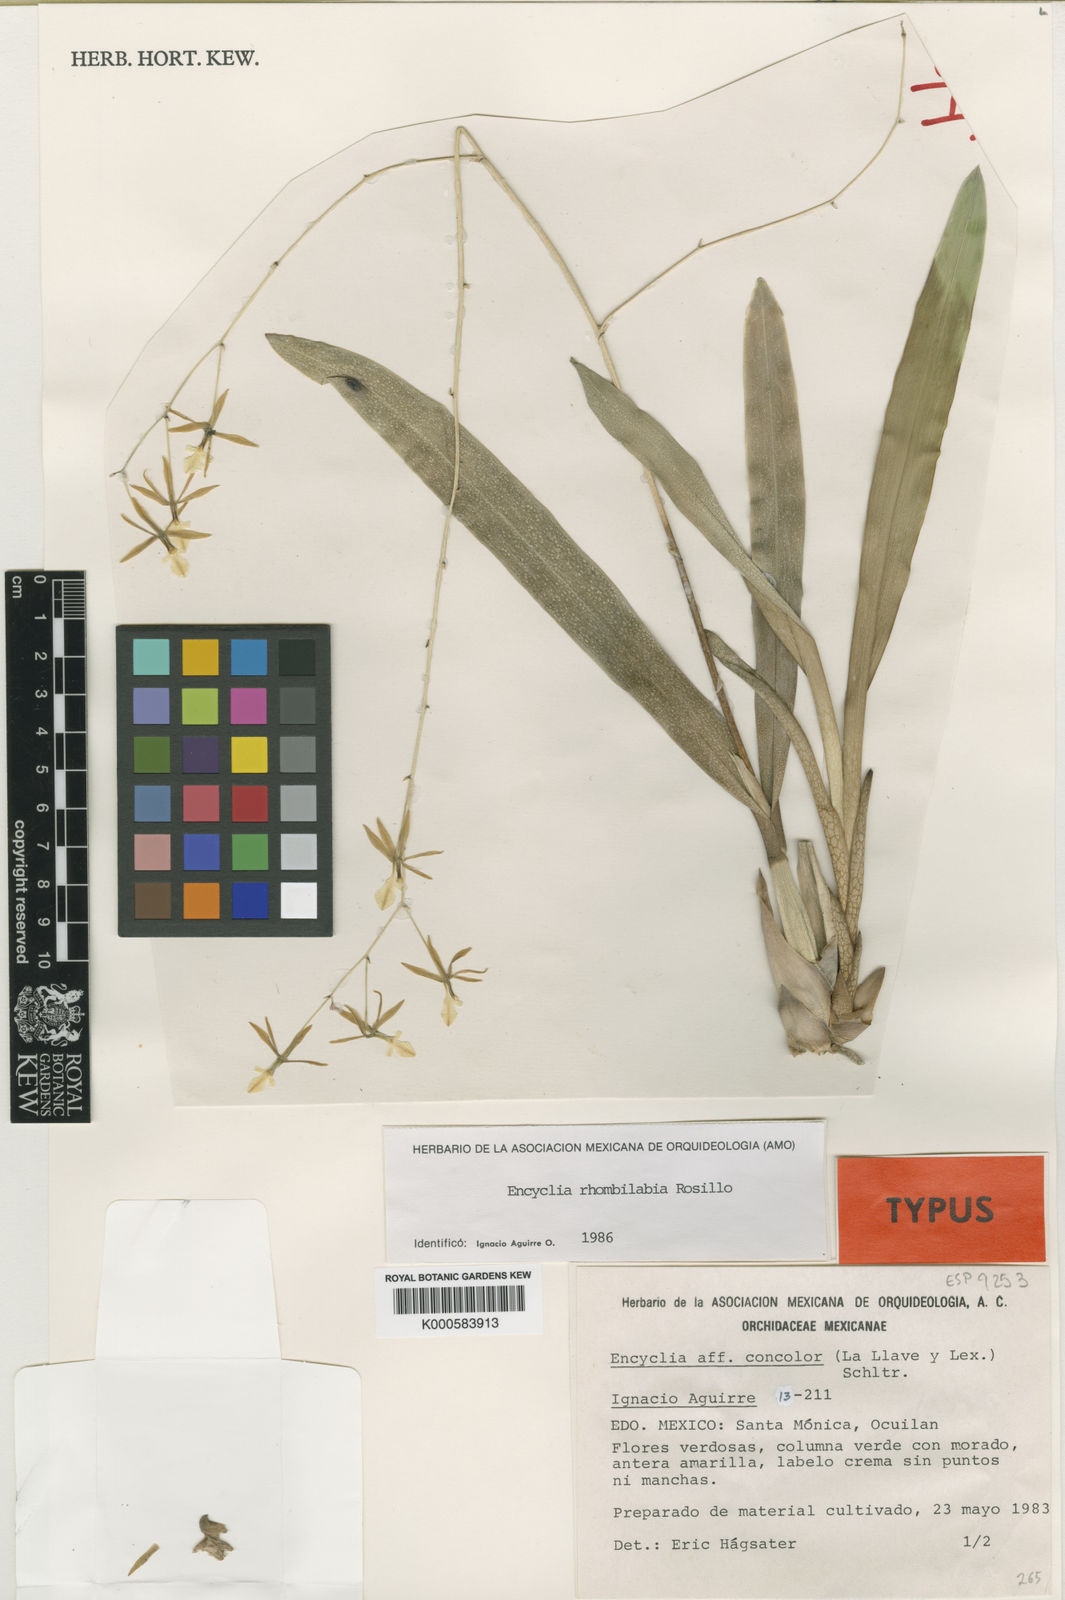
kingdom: Plantae
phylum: Tracheophyta
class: Liliopsida
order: Asparagales
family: Orchidaceae
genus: Prosthechea
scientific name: Prosthechea punctulata
